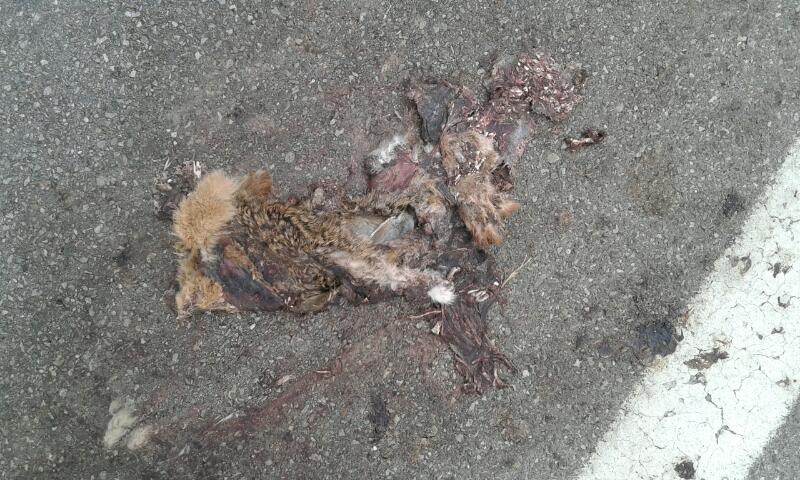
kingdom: Animalia
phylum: Chordata
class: Mammalia
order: Lagomorpha
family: Leporidae
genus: Lepus
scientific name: Lepus europaeus
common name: European hare
